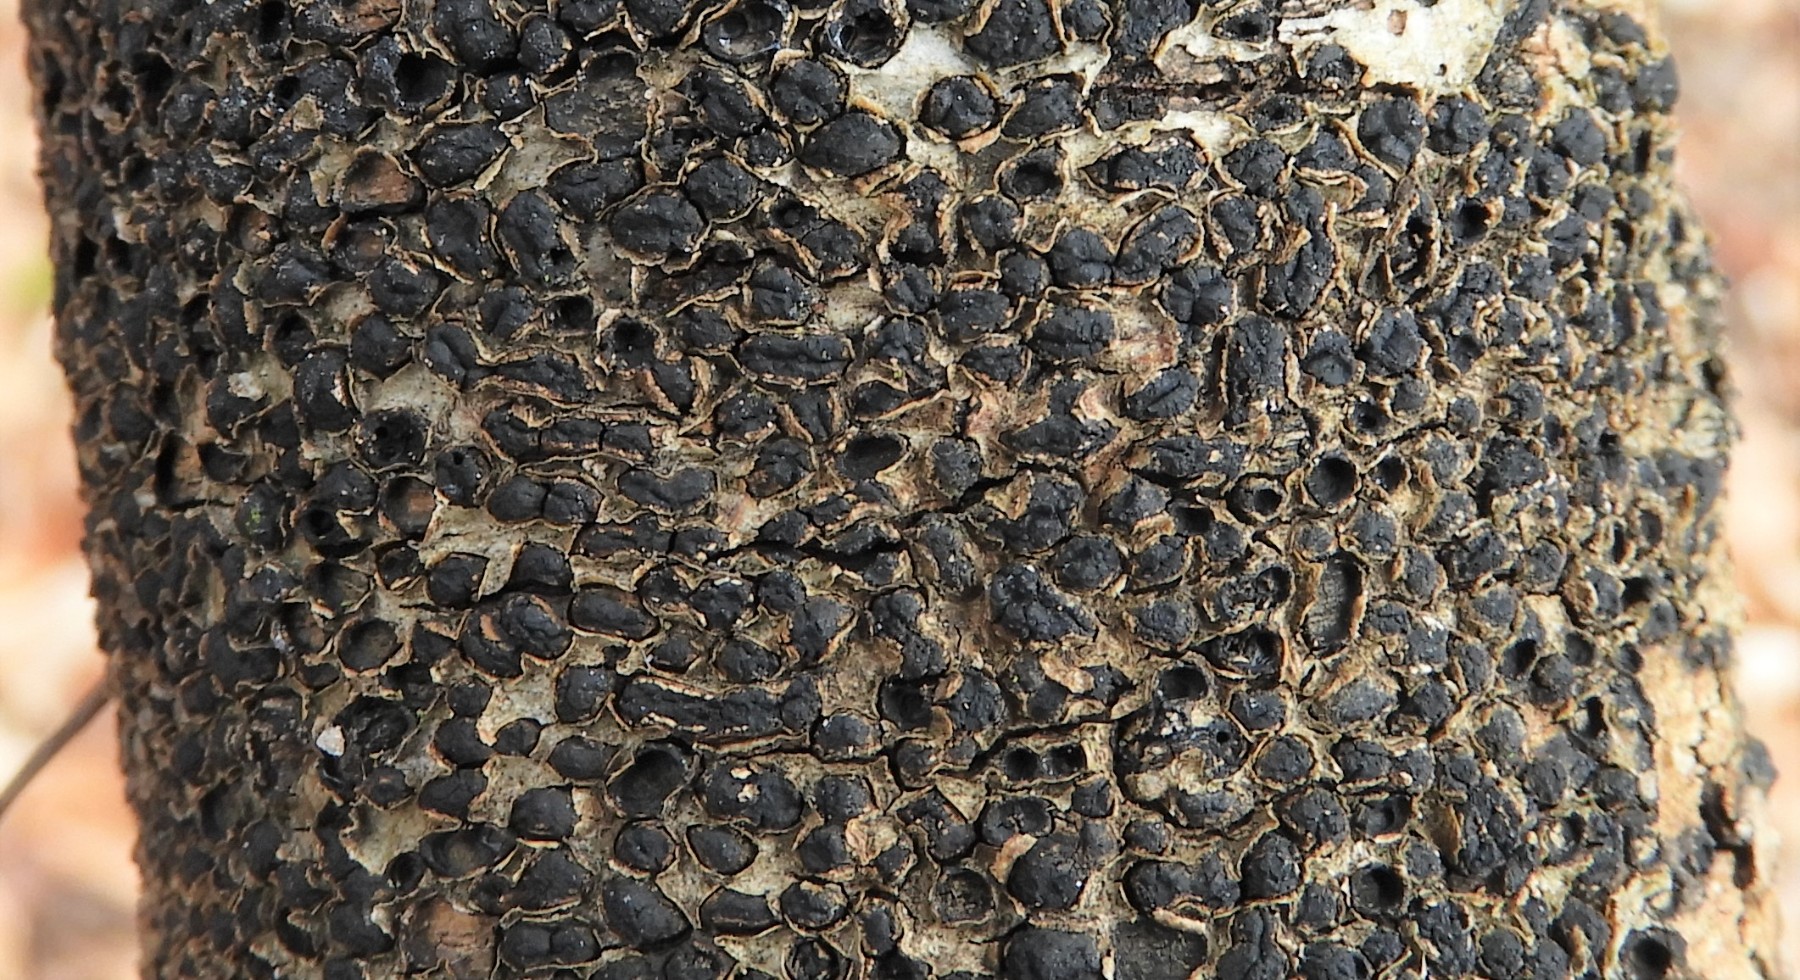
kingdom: Fungi
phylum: Ascomycota
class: Sordariomycetes
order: Xylariales
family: Melogrammataceae
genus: Melogramma
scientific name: Melogramma spiniferum
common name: bøgefod-kulhals
